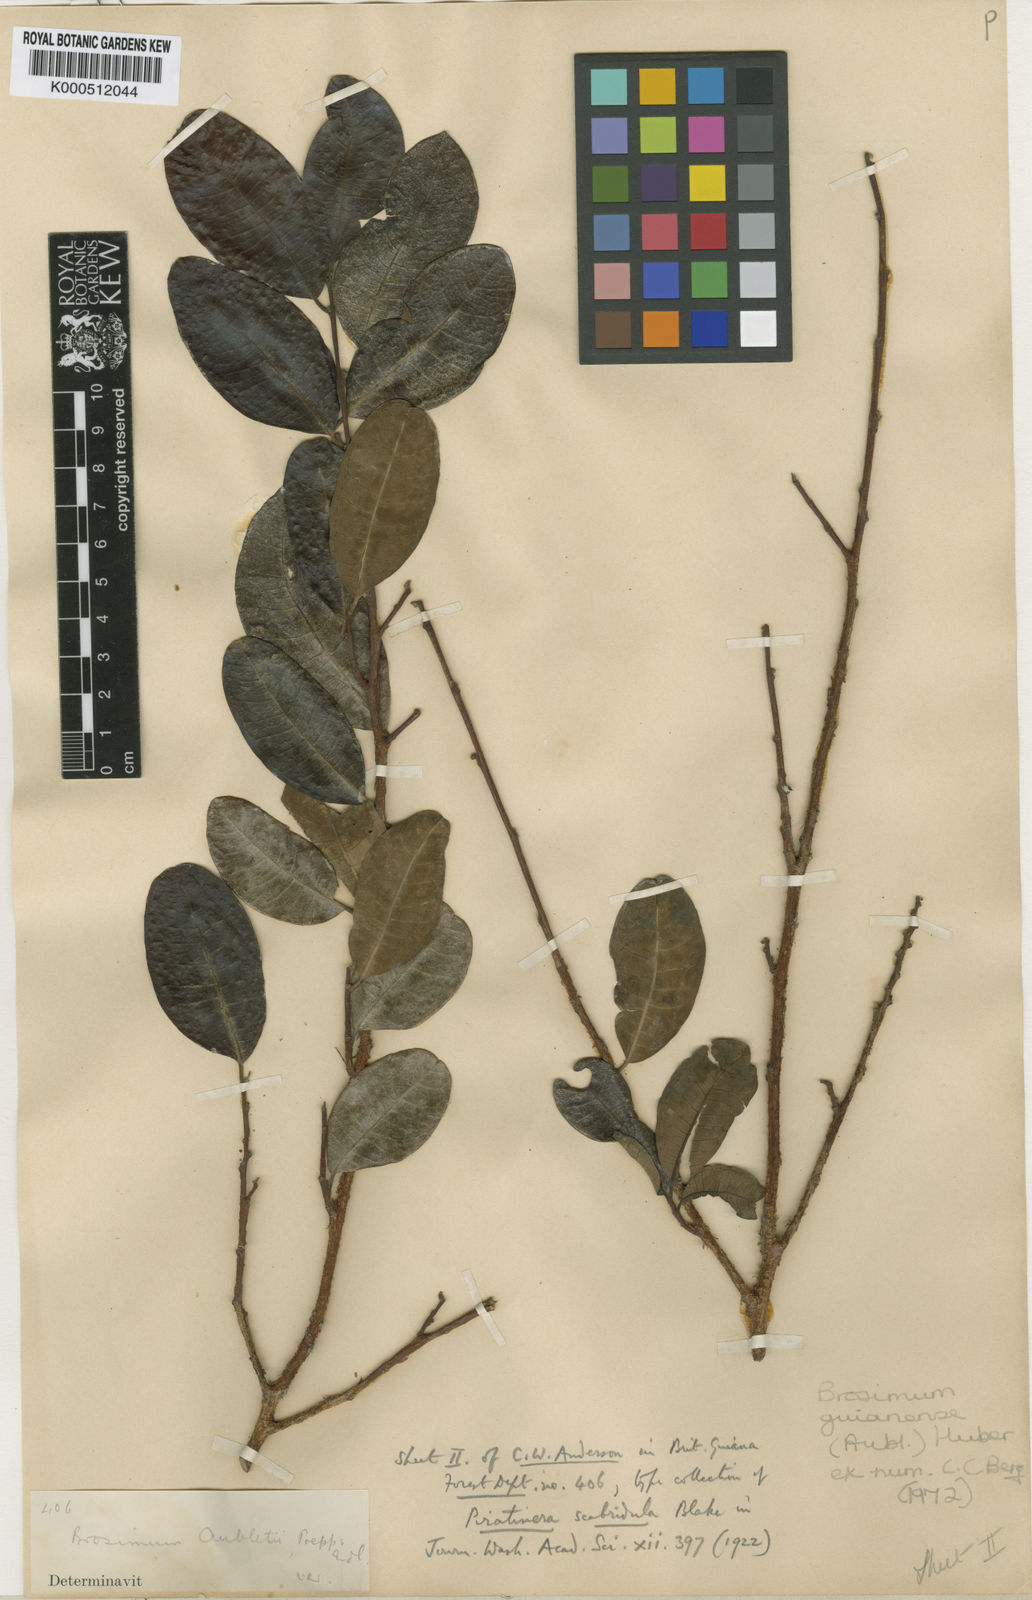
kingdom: Plantae
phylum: Tracheophyta
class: Magnoliopsida
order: Rosales
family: Moraceae
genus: Brosimum
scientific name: Brosimum
